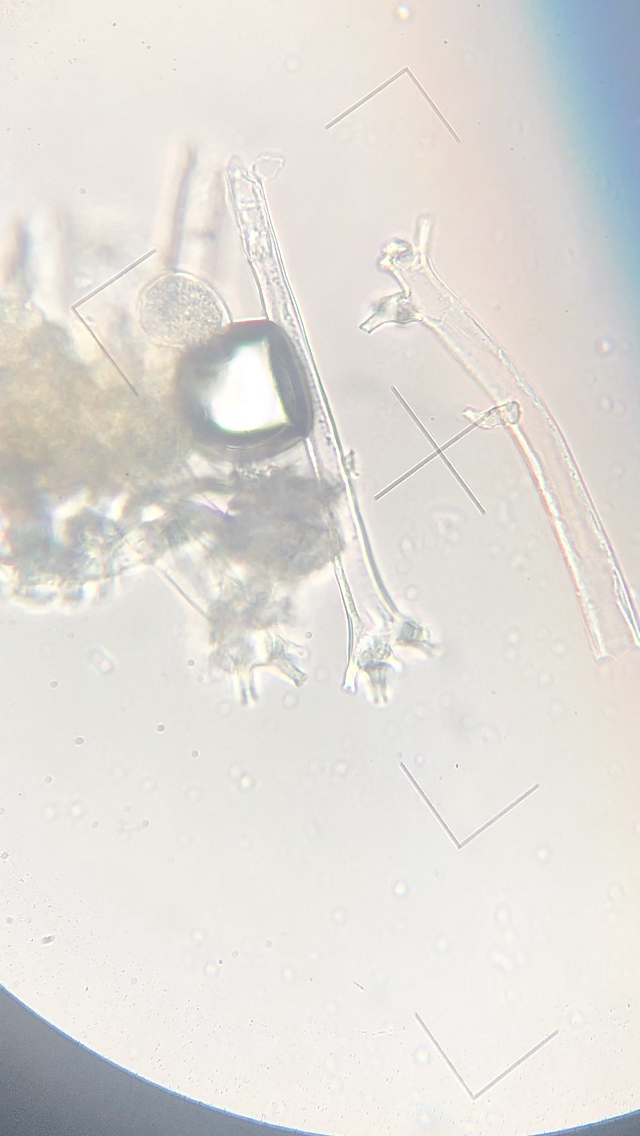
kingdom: Chromista
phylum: Oomycota
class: Peronosporea
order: Peronosporales
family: Peronosporaceae
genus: Plasmoverna
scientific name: Plasmoverna pygmaea
